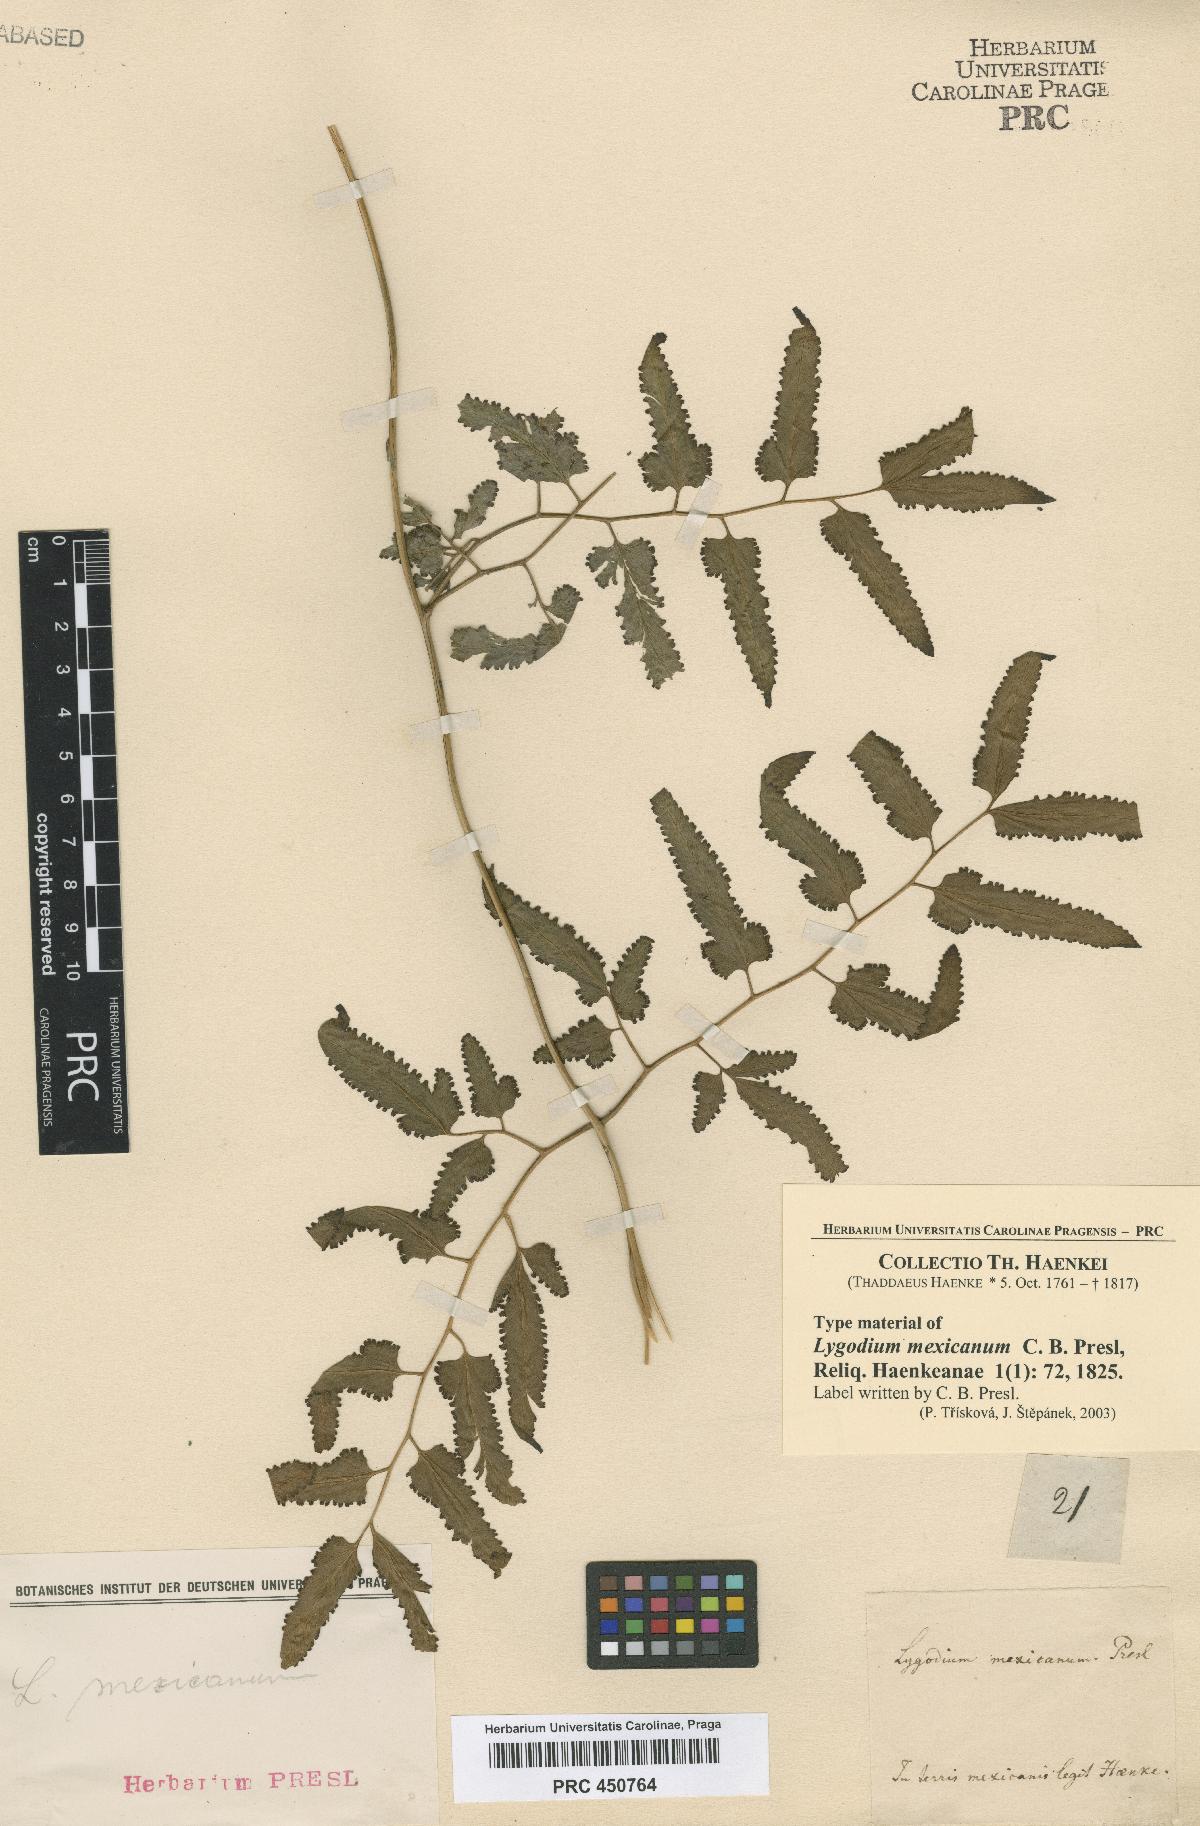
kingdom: Plantae
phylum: Tracheophyta
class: Polypodiopsida
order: Schizaeales
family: Lygodiaceae
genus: Lygodium
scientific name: Lygodium venustum
